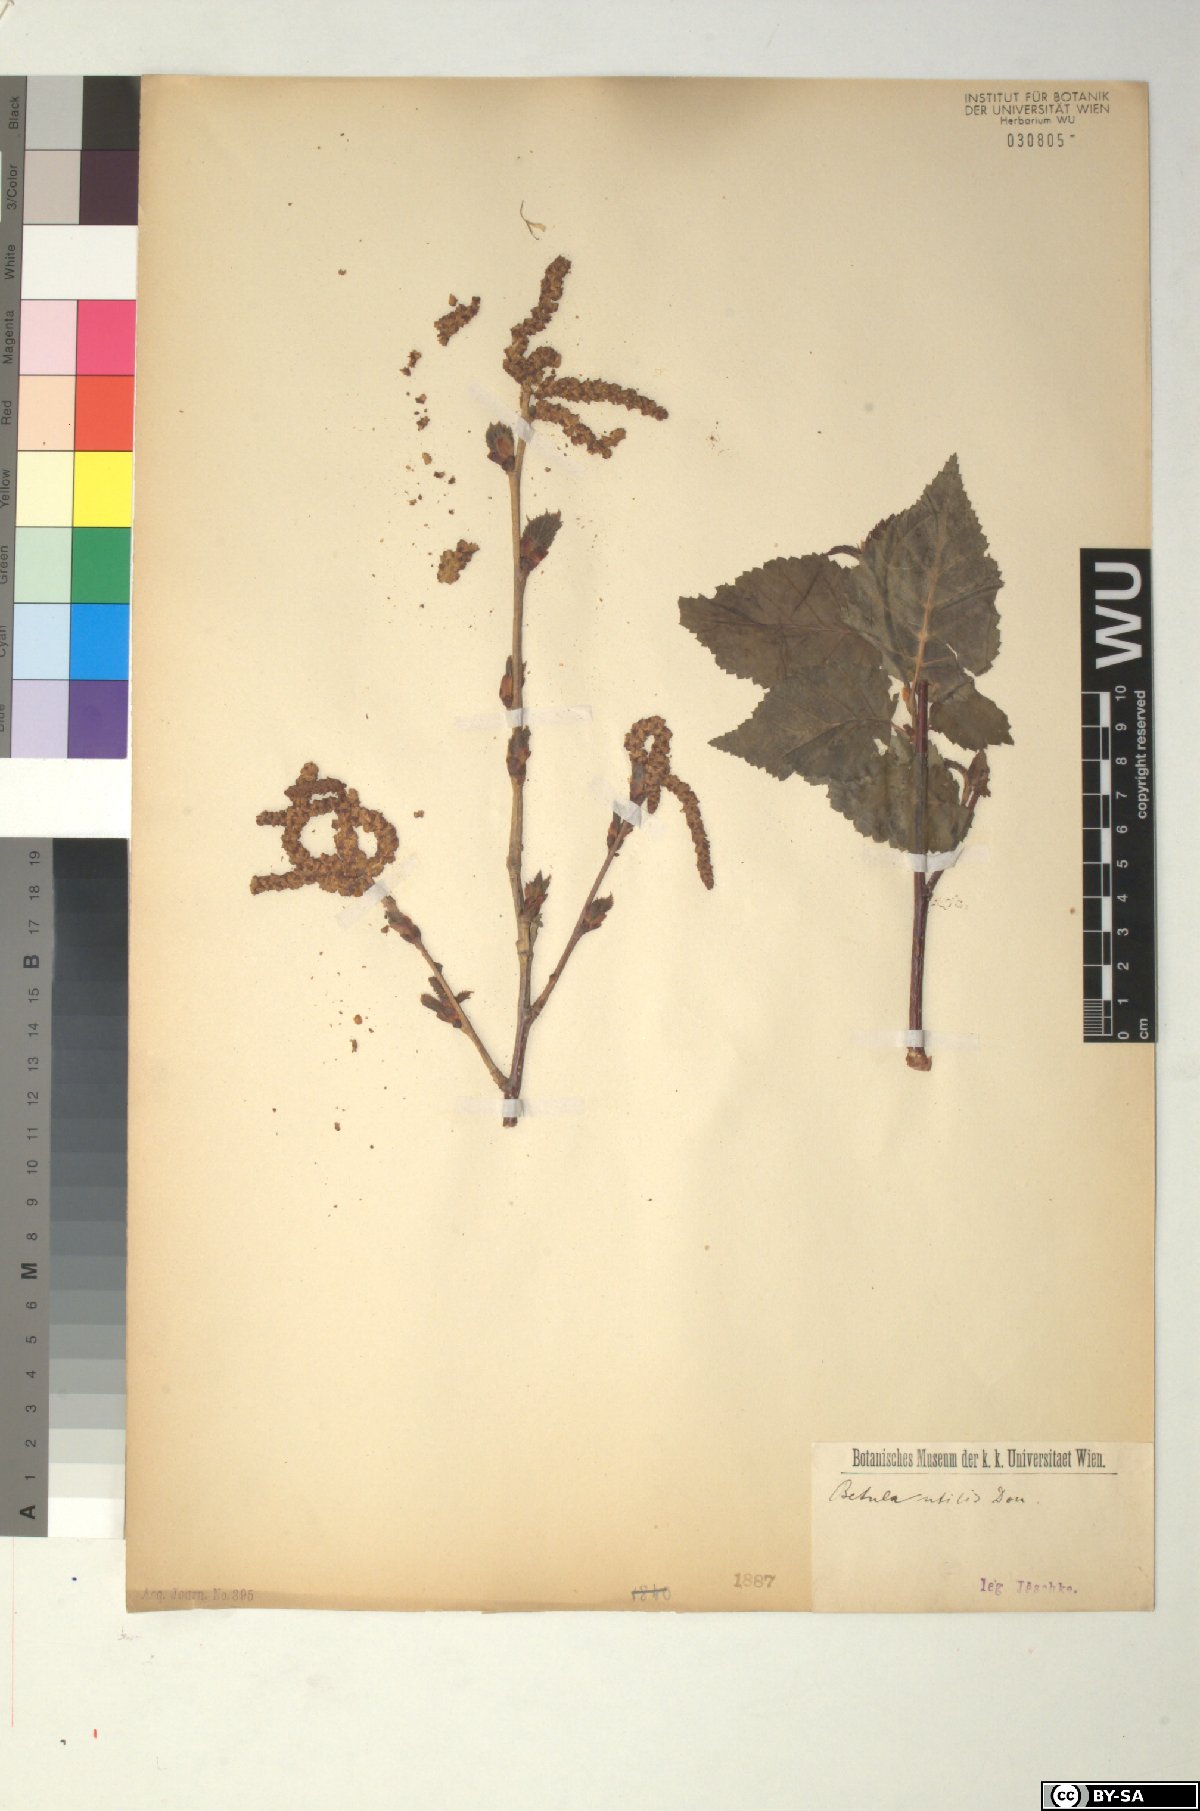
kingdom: Plantae
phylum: Tracheophyta
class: Magnoliopsida
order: Fagales
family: Betulaceae
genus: Betula
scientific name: Betula utilis
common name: Himalayan birch
